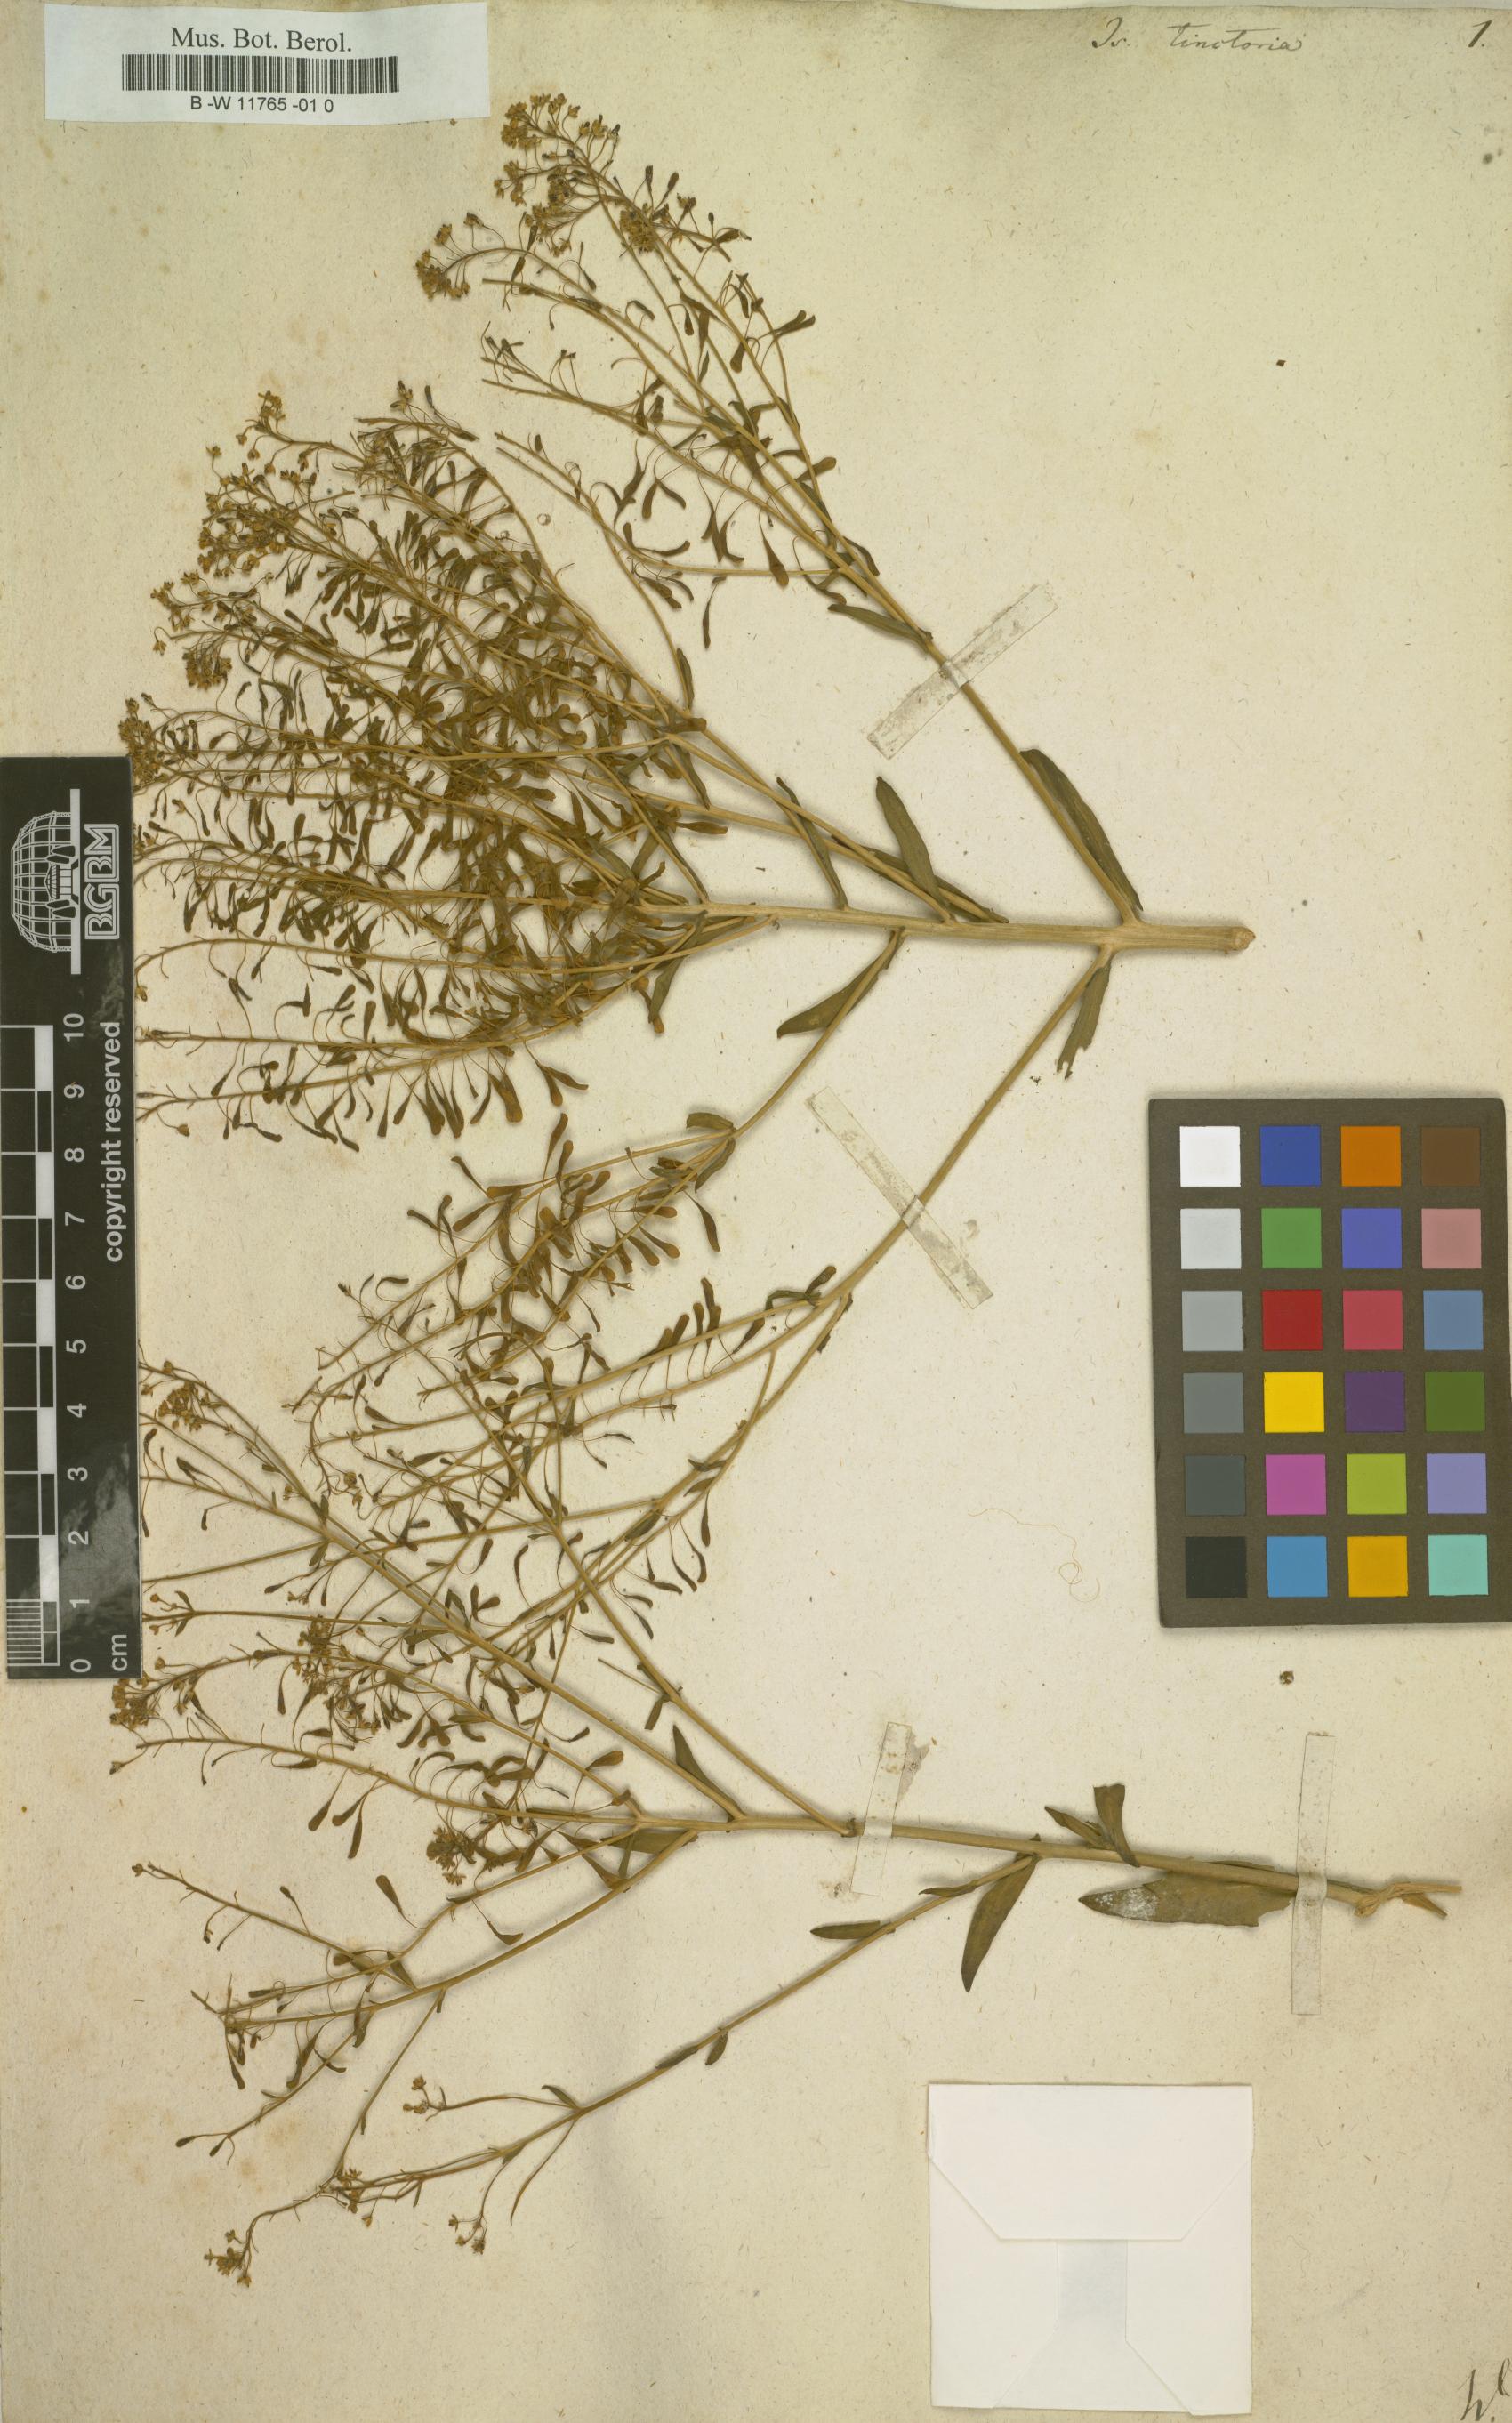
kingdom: Plantae
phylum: Tracheophyta
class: Magnoliopsida
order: Brassicales
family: Brassicaceae
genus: Isatis
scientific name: Isatis tinctoria
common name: Woad
